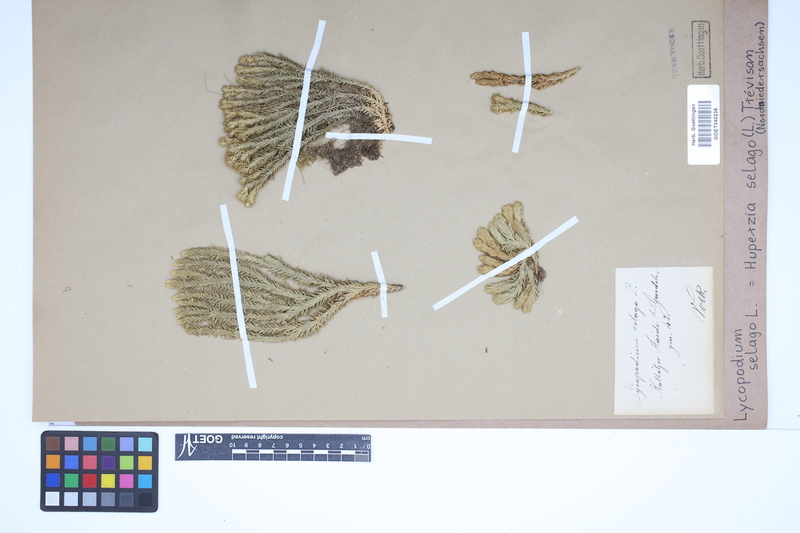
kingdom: Plantae
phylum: Tracheophyta
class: Lycopodiopsida
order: Lycopodiales
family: Lycopodiaceae
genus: Huperzia
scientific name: Huperzia selago
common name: Northern firmoss
